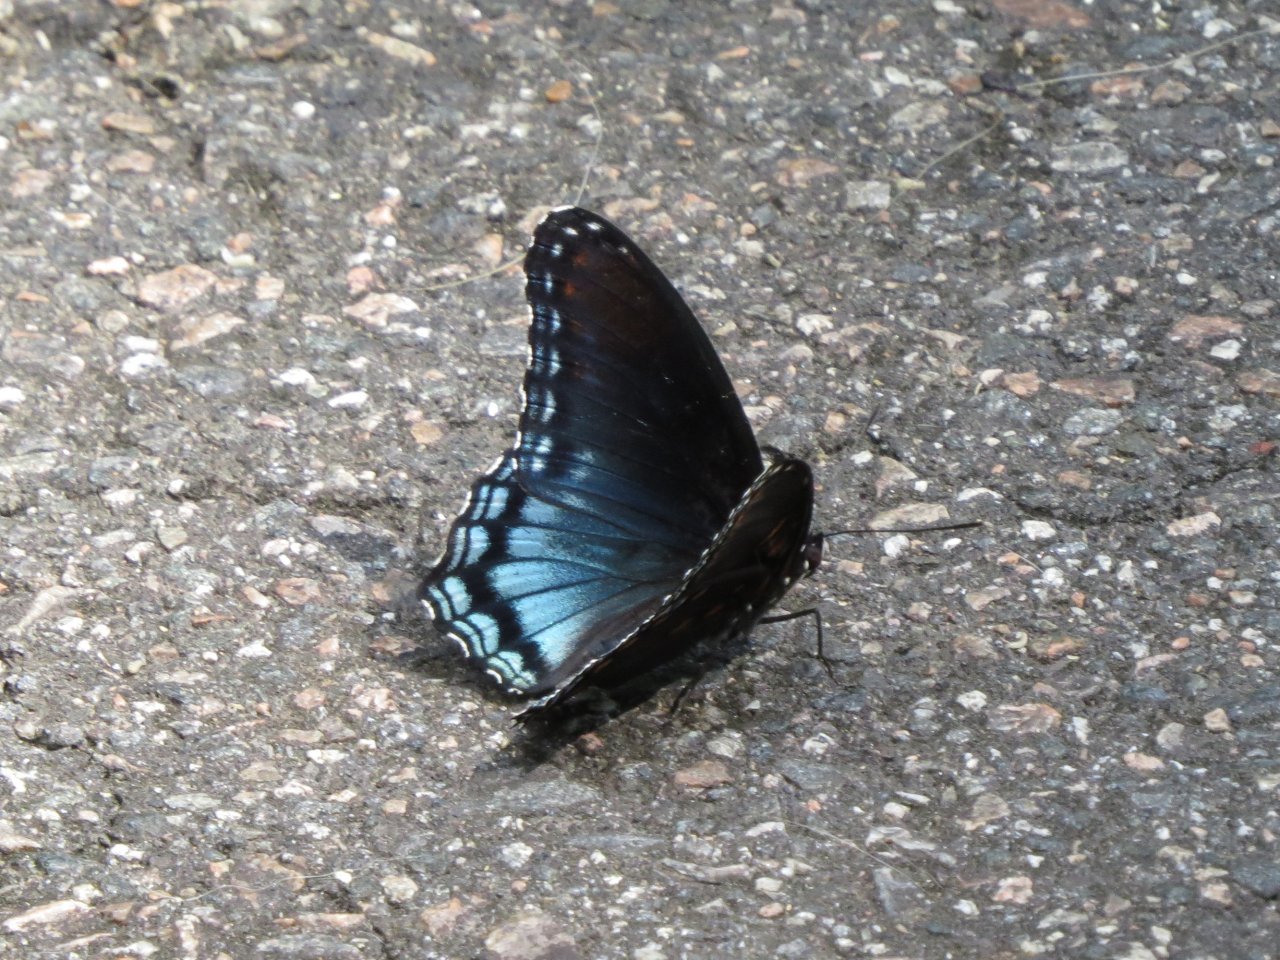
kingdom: Animalia
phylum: Arthropoda
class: Insecta
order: Lepidoptera
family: Nymphalidae
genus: Limenitis
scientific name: Limenitis astyanax
